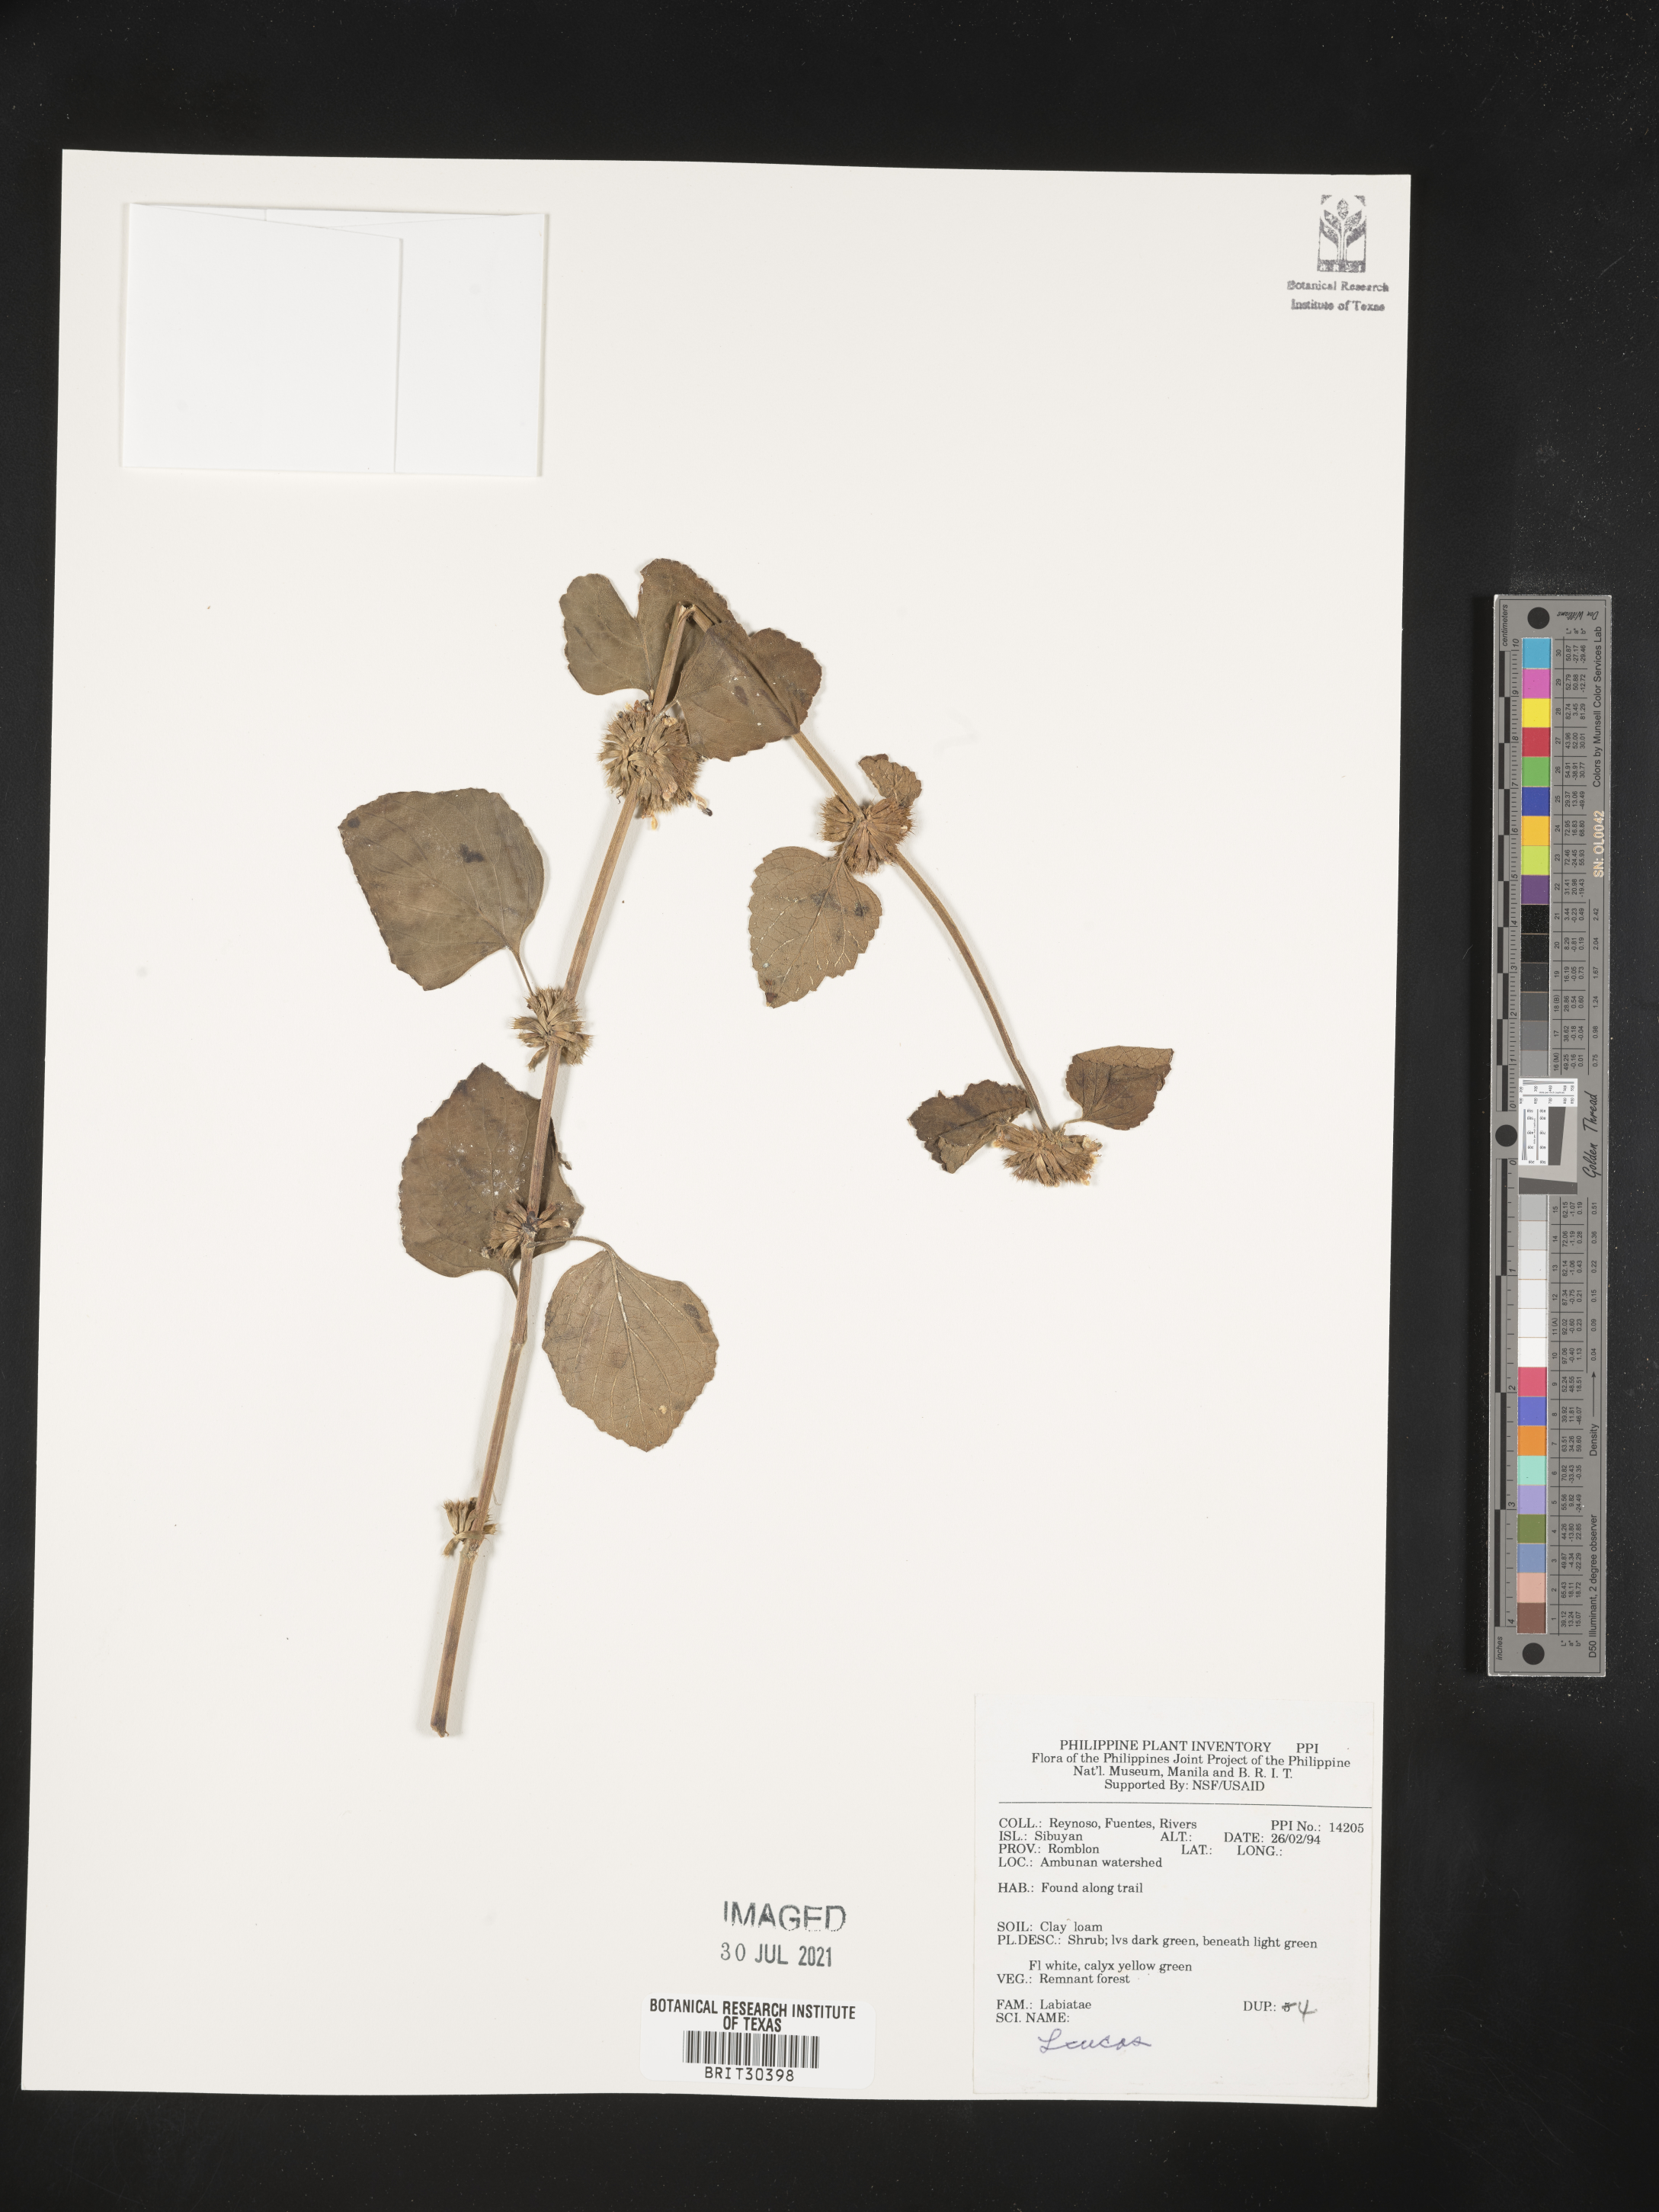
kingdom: Plantae
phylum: Tracheophyta
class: Magnoliopsida
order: Lamiales
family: Lamiaceae
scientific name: Lamiaceae
